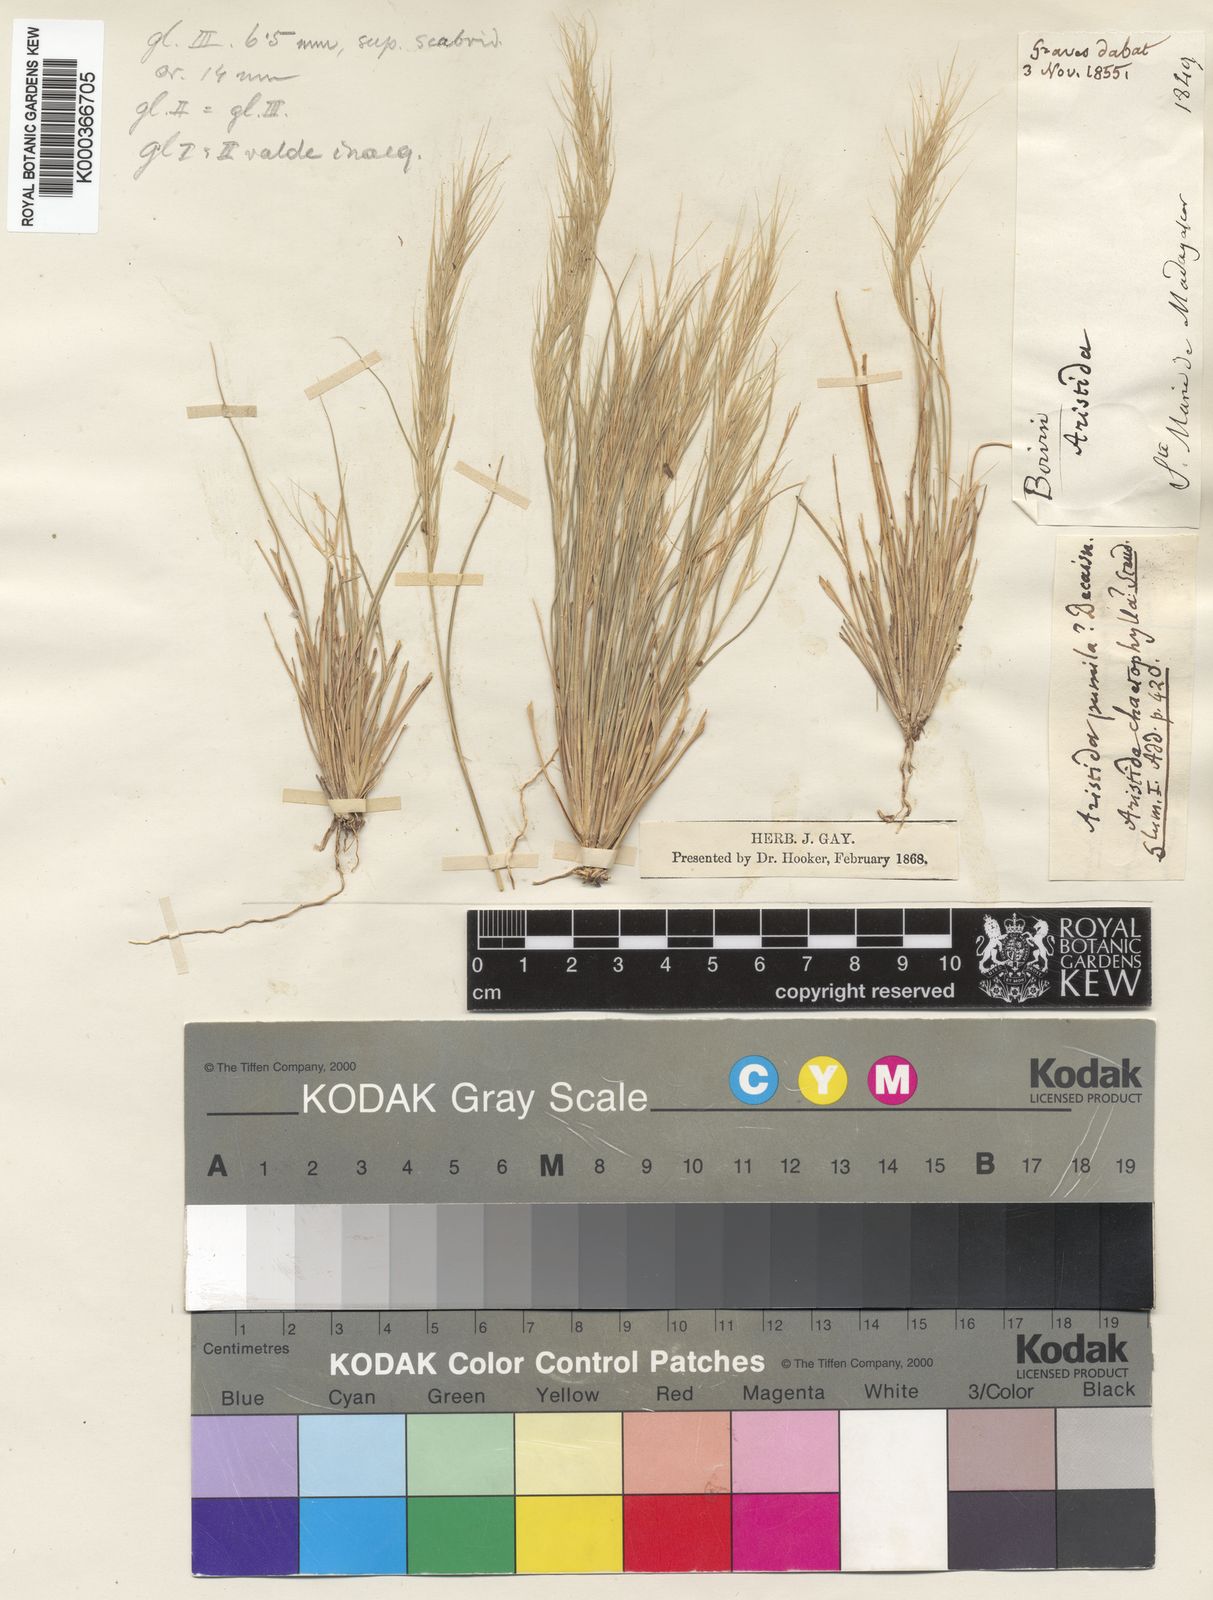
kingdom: Plantae
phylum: Tracheophyta
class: Liliopsida
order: Poales
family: Poaceae
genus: Aristida
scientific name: Aristida adscensionis
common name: Sixweeks threeawn
